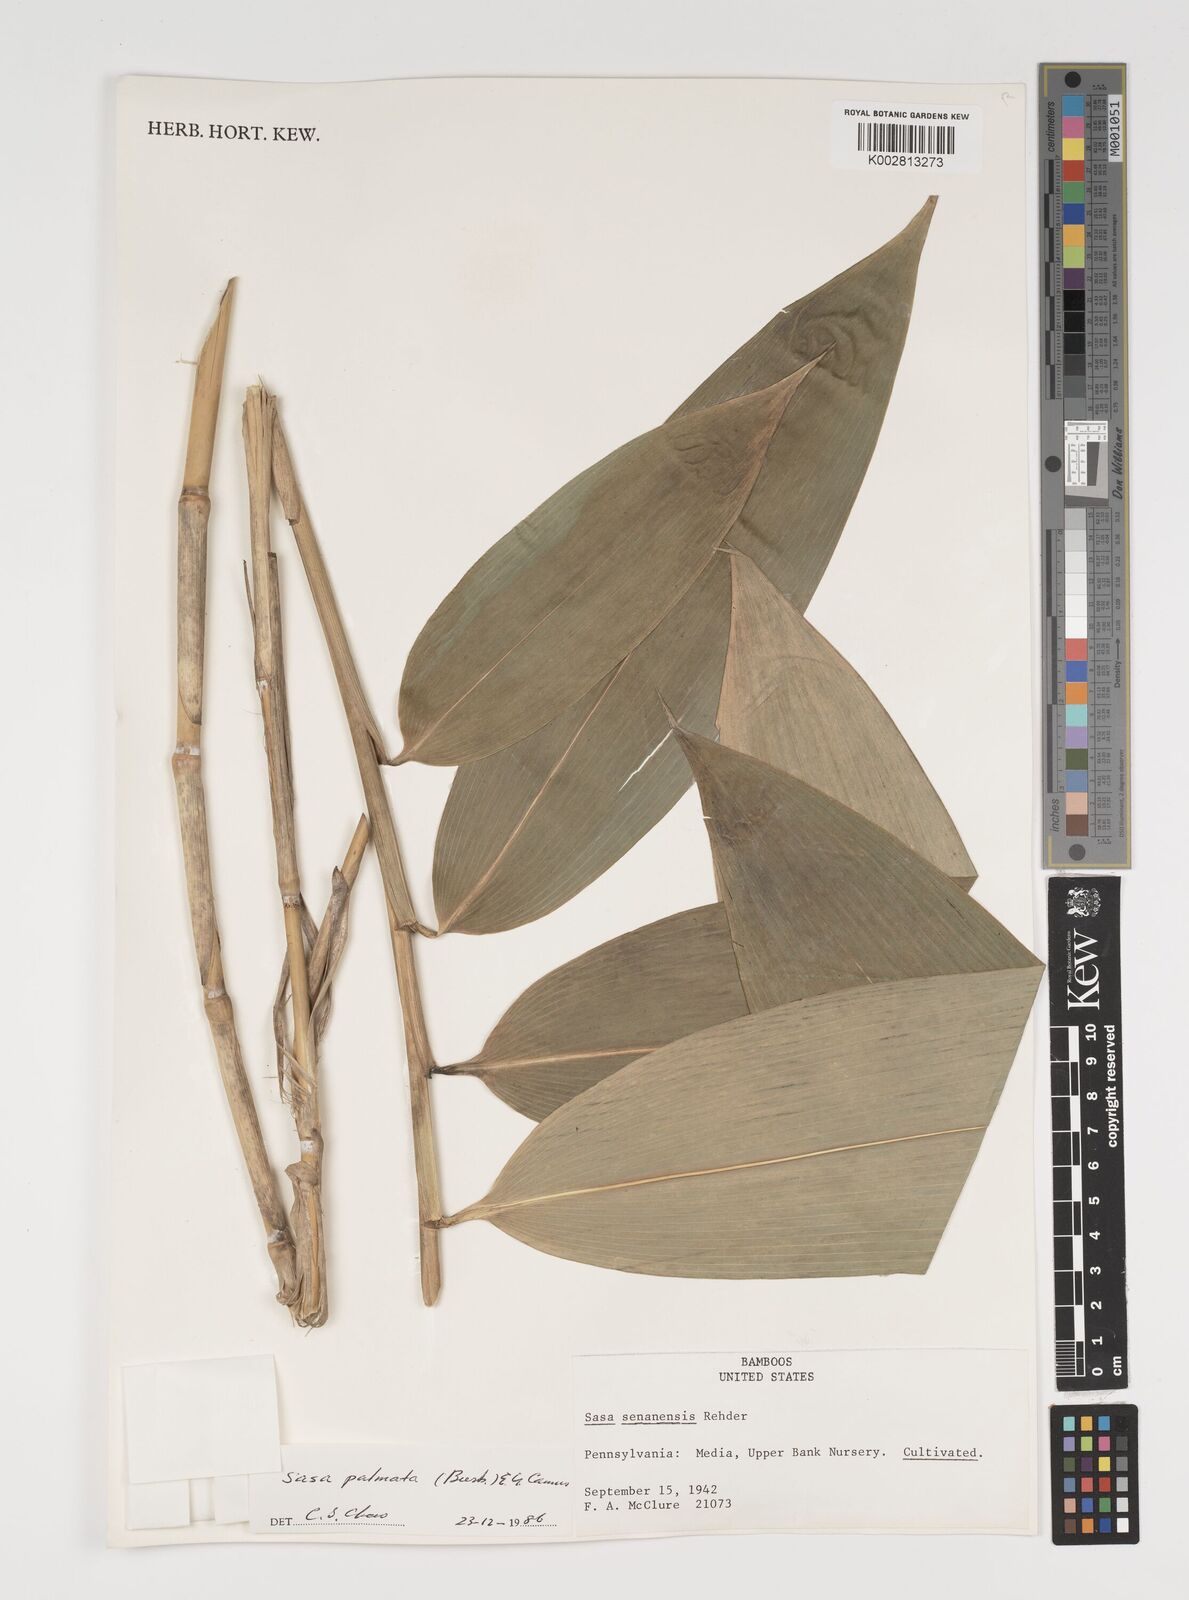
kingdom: Plantae
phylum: Tracheophyta
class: Liliopsida
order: Poales
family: Poaceae
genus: Sasa
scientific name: Sasa senanensis
